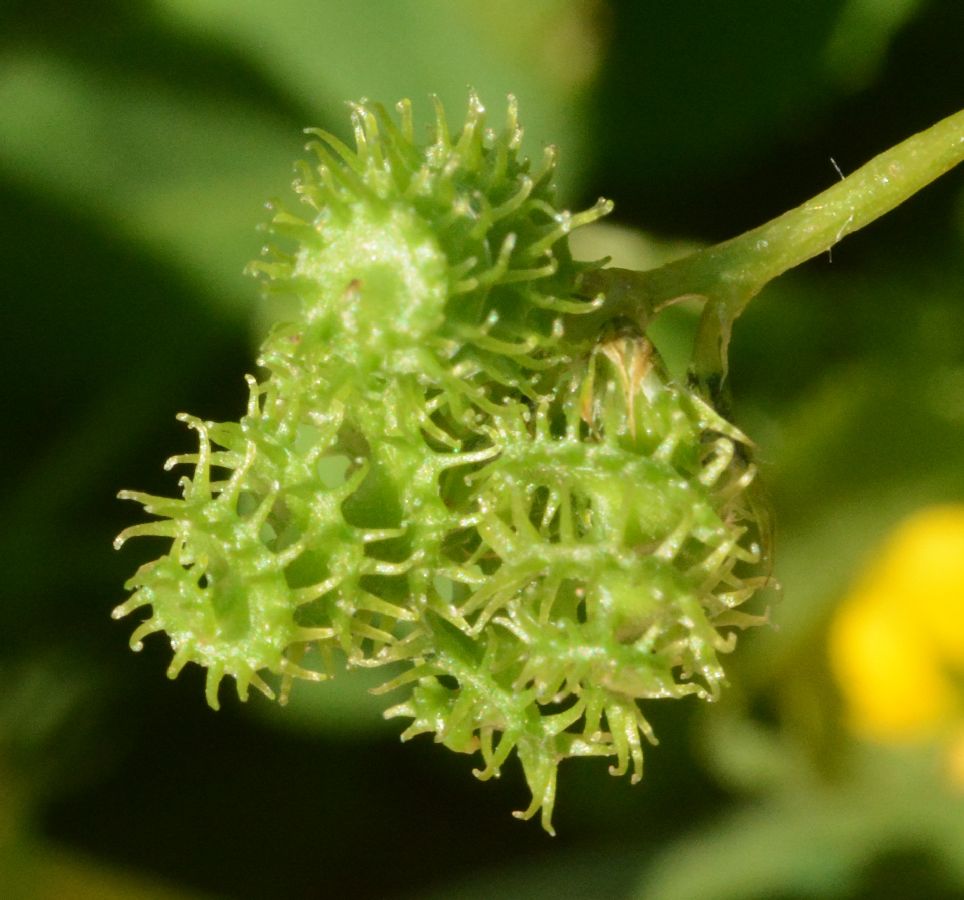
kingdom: Plantae
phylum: Tracheophyta
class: Magnoliopsida
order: Fabales
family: Fabaceae
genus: Medicago
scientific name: Medicago polymorpha
